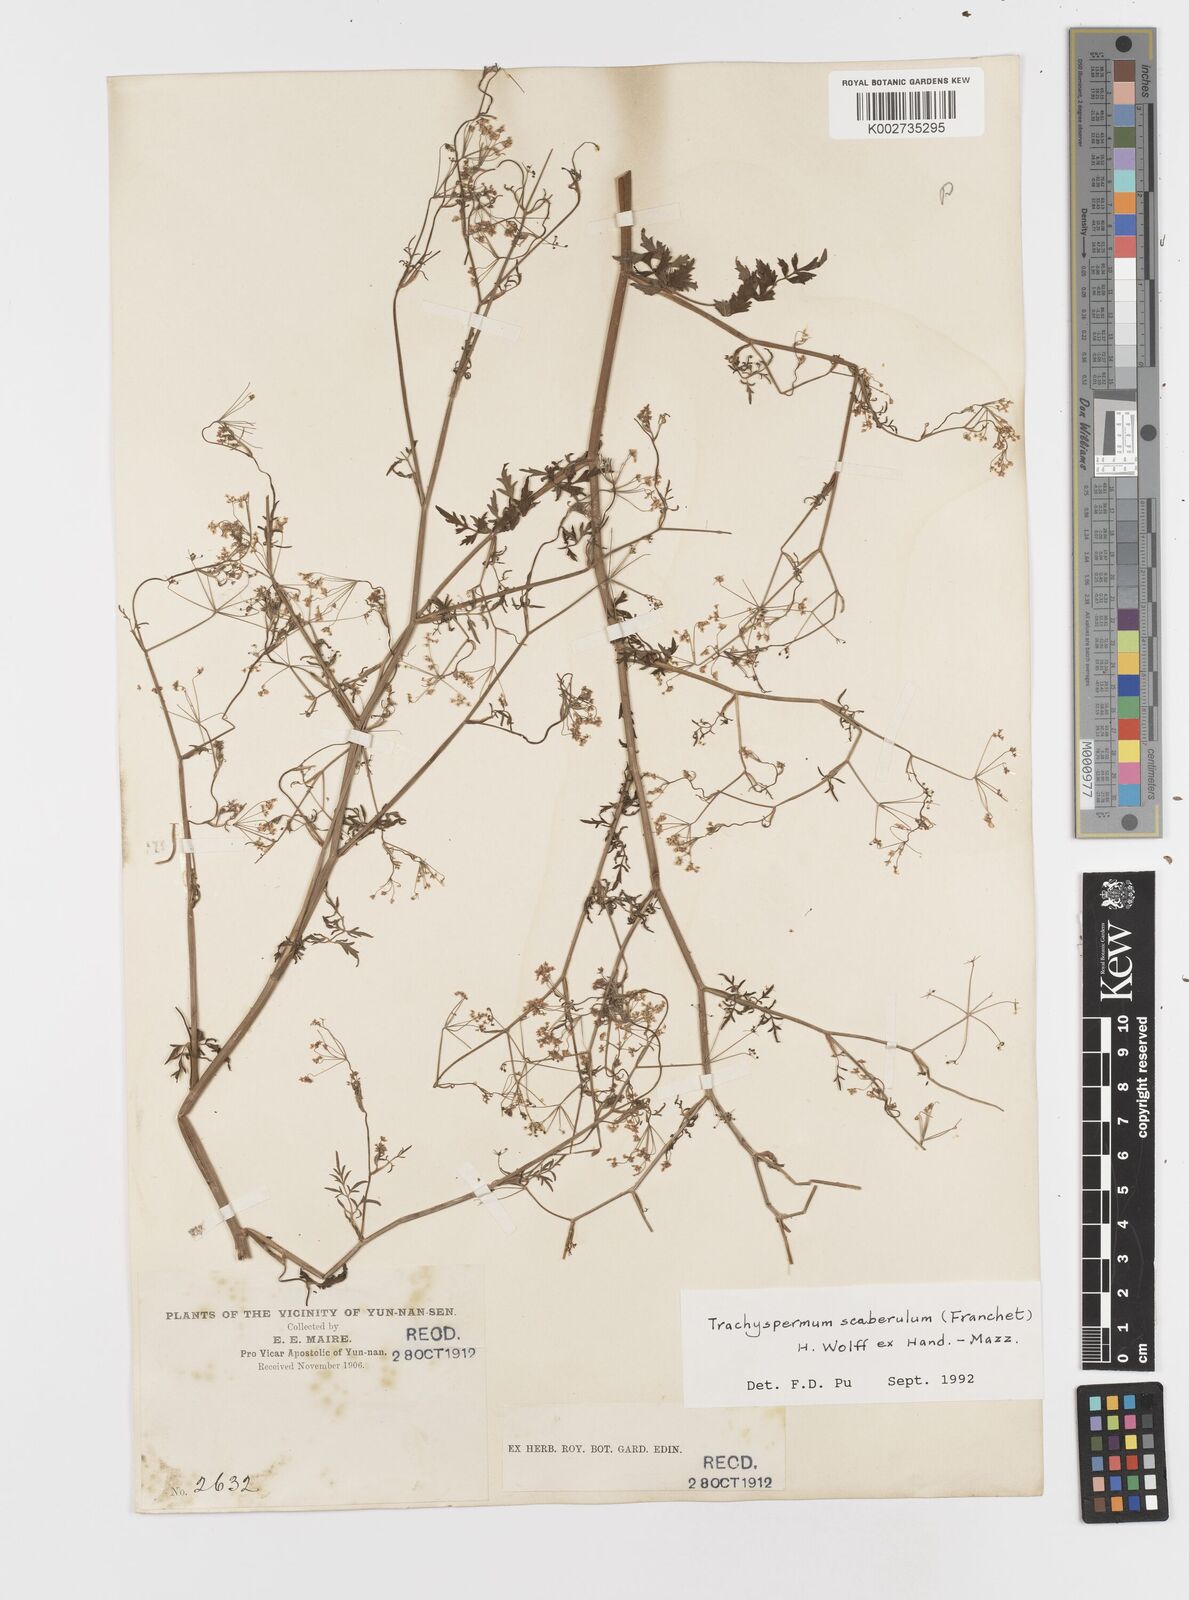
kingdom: Plantae
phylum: Tracheophyta
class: Magnoliopsida
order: Apiales
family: Apiaceae
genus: Pimpinella
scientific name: Pimpinella scaberula
